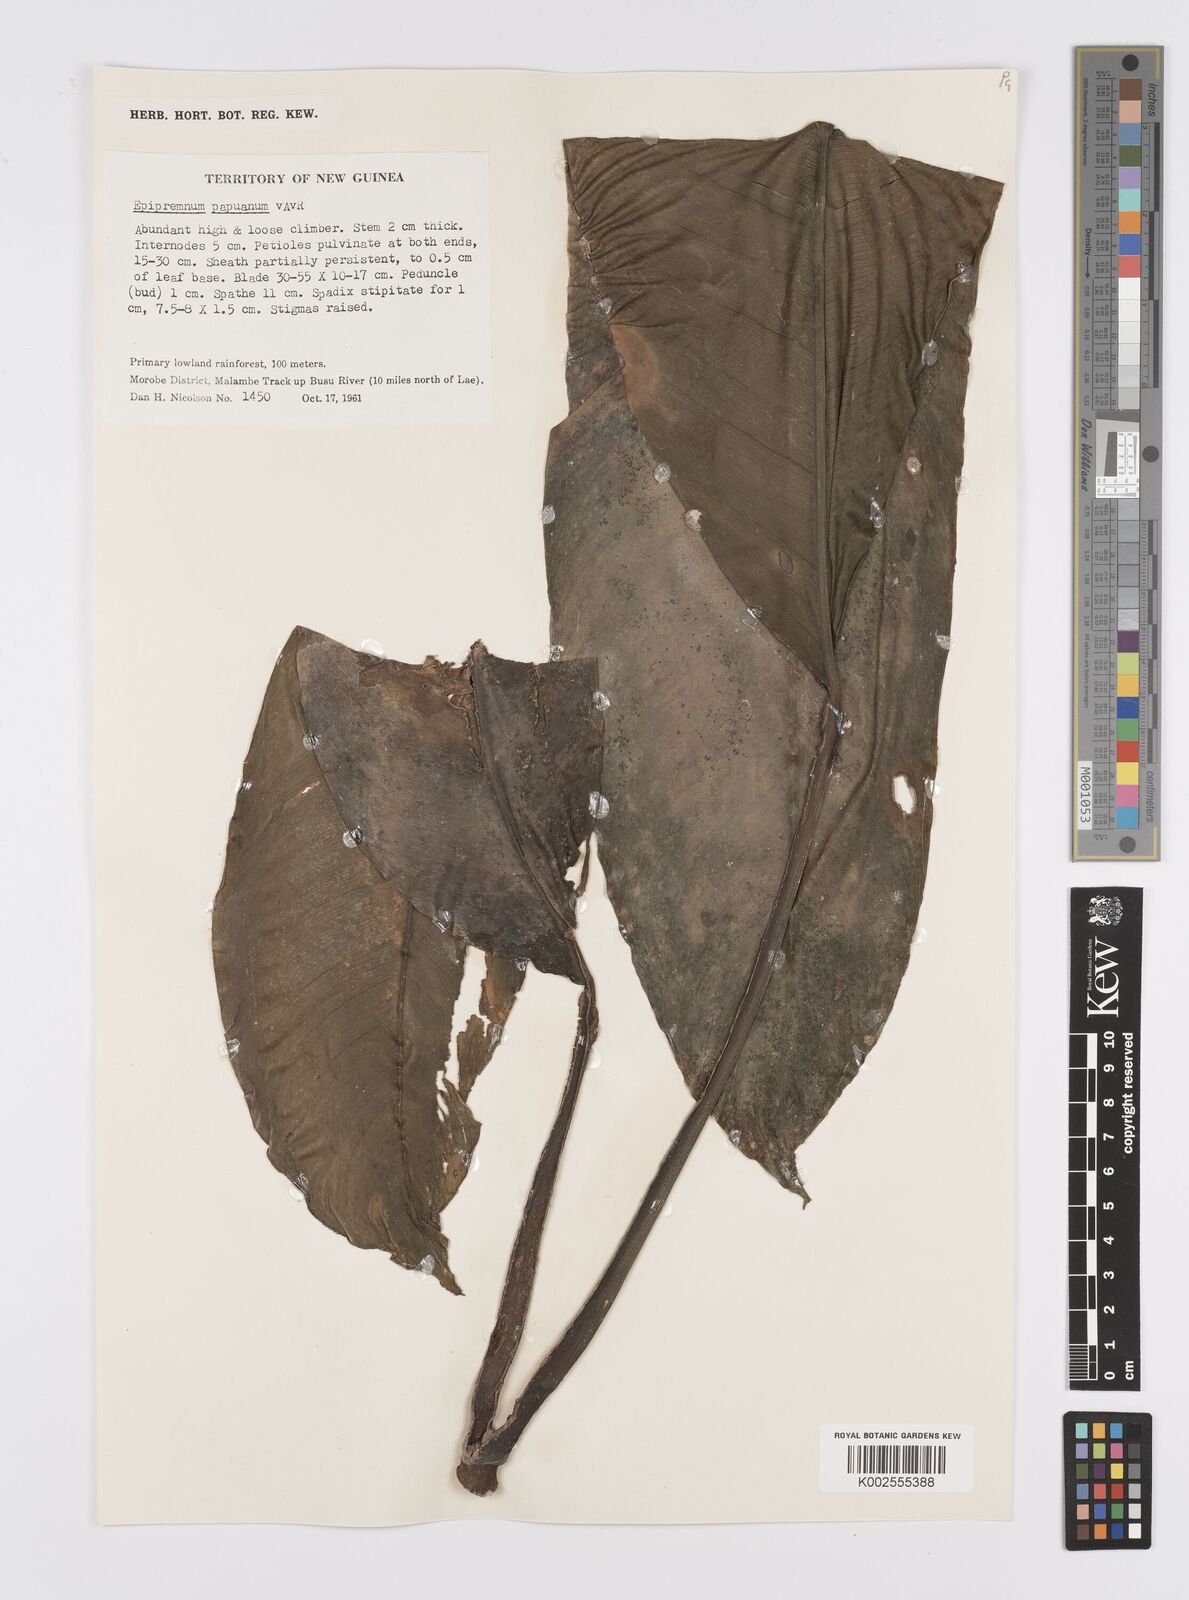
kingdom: Plantae
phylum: Tracheophyta
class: Liliopsida
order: Alismatales
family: Araceae
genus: Epipremnum
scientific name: Epipremnum papuanum
